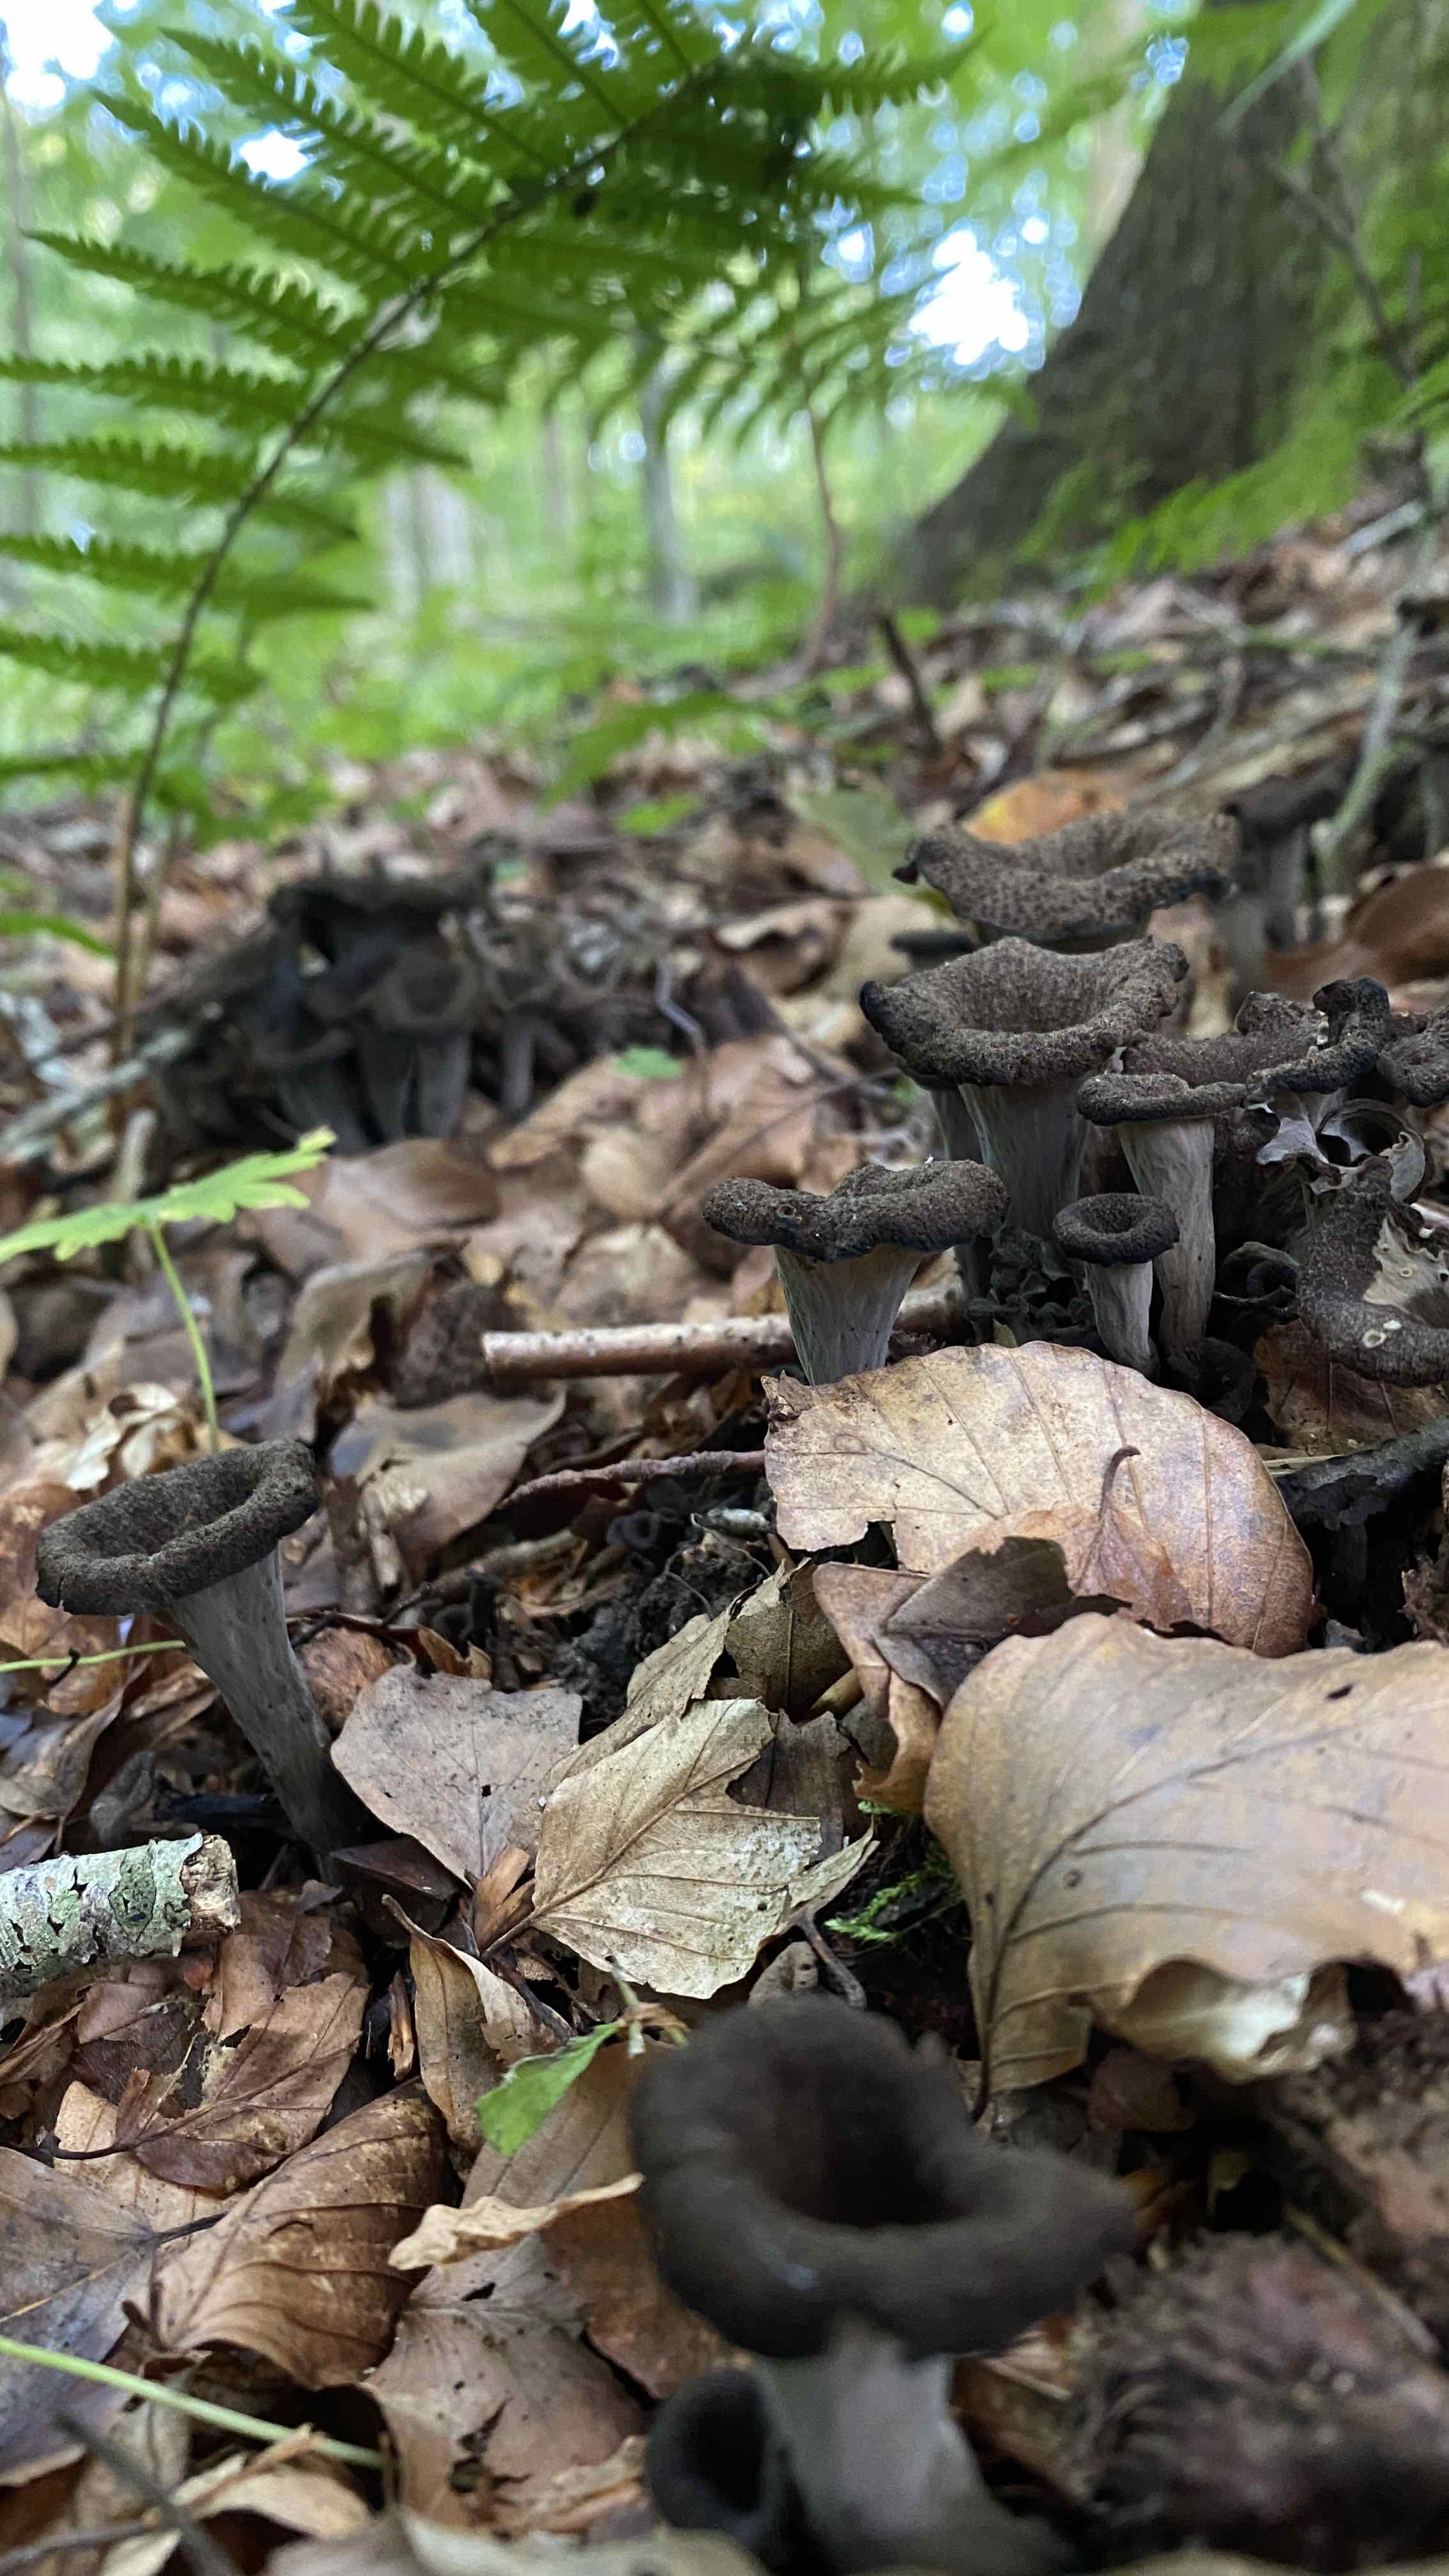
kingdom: Fungi
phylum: Basidiomycota
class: Agaricomycetes
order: Cantharellales
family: Hydnaceae
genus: Craterellus
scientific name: Craterellus cornucopioides
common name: trompetsvamp
